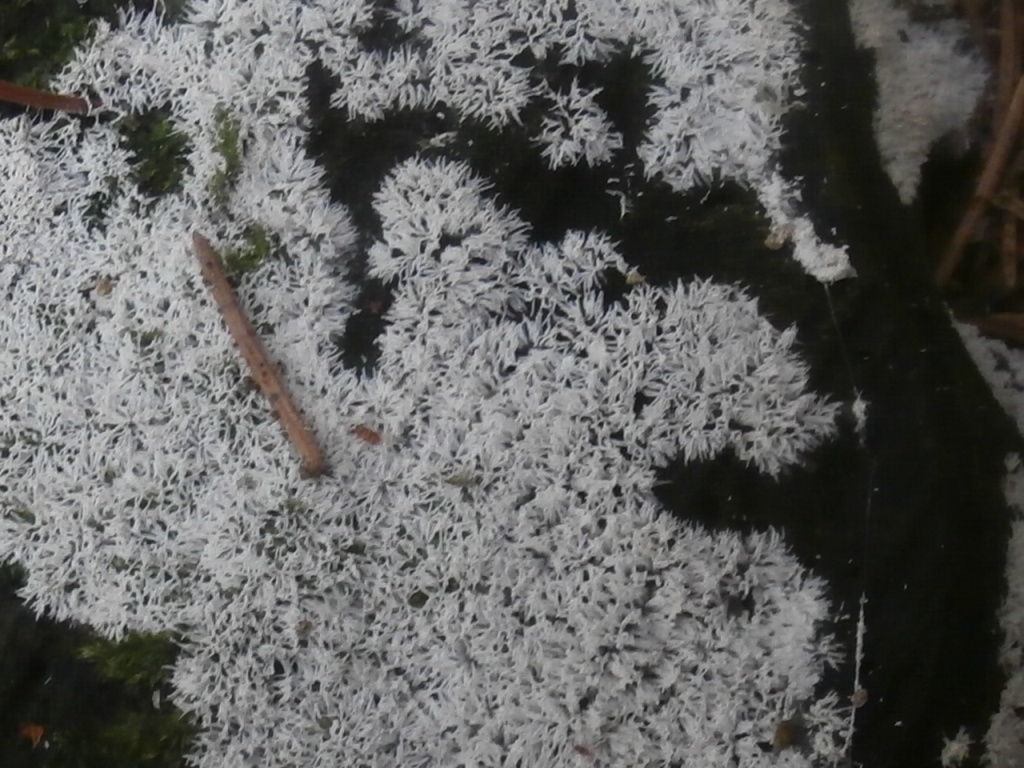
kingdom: Protozoa
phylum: Mycetozoa
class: Protosteliomycetes
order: Ceratiomyxales
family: Ceratiomyxaceae
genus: Ceratiomyxa
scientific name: Ceratiomyxa fruticulosa
